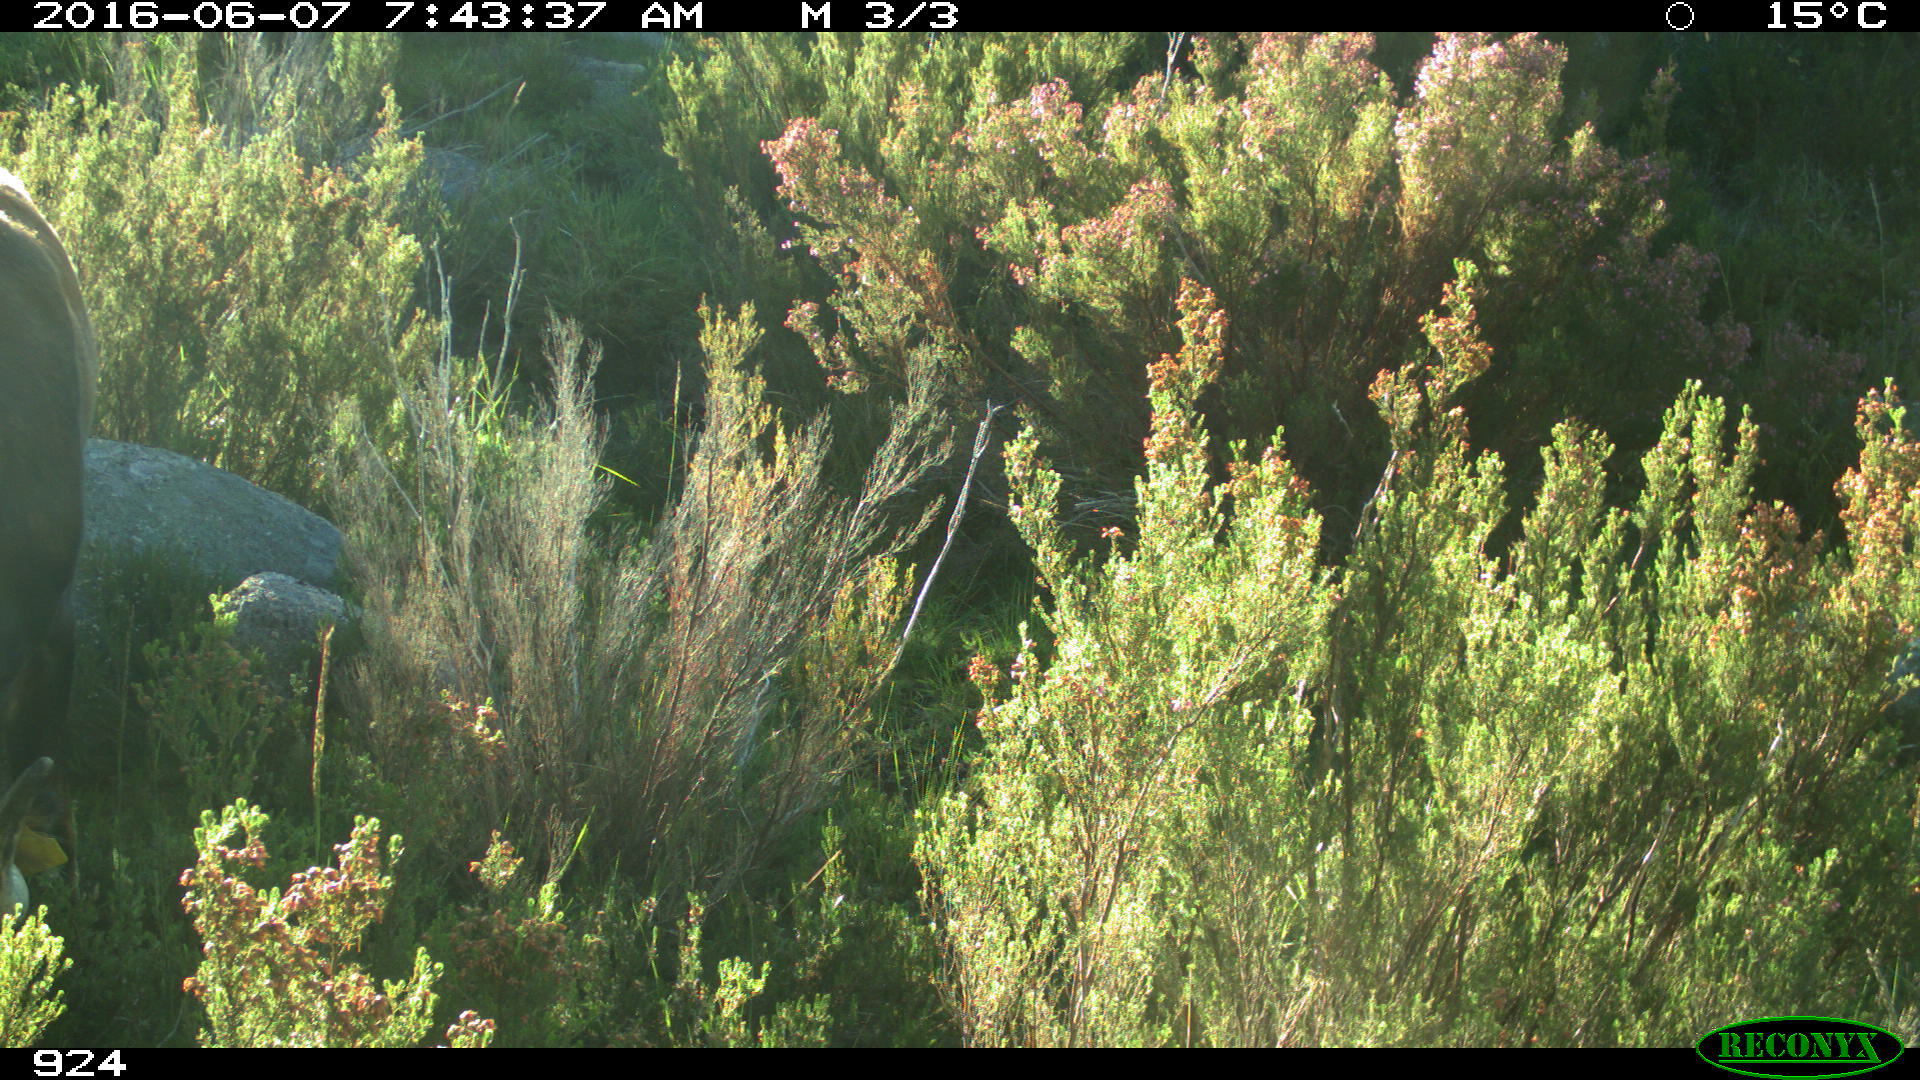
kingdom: Animalia
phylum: Chordata
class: Mammalia
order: Artiodactyla
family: Bovidae
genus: Bos
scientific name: Bos taurus
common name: Domesticated cattle
